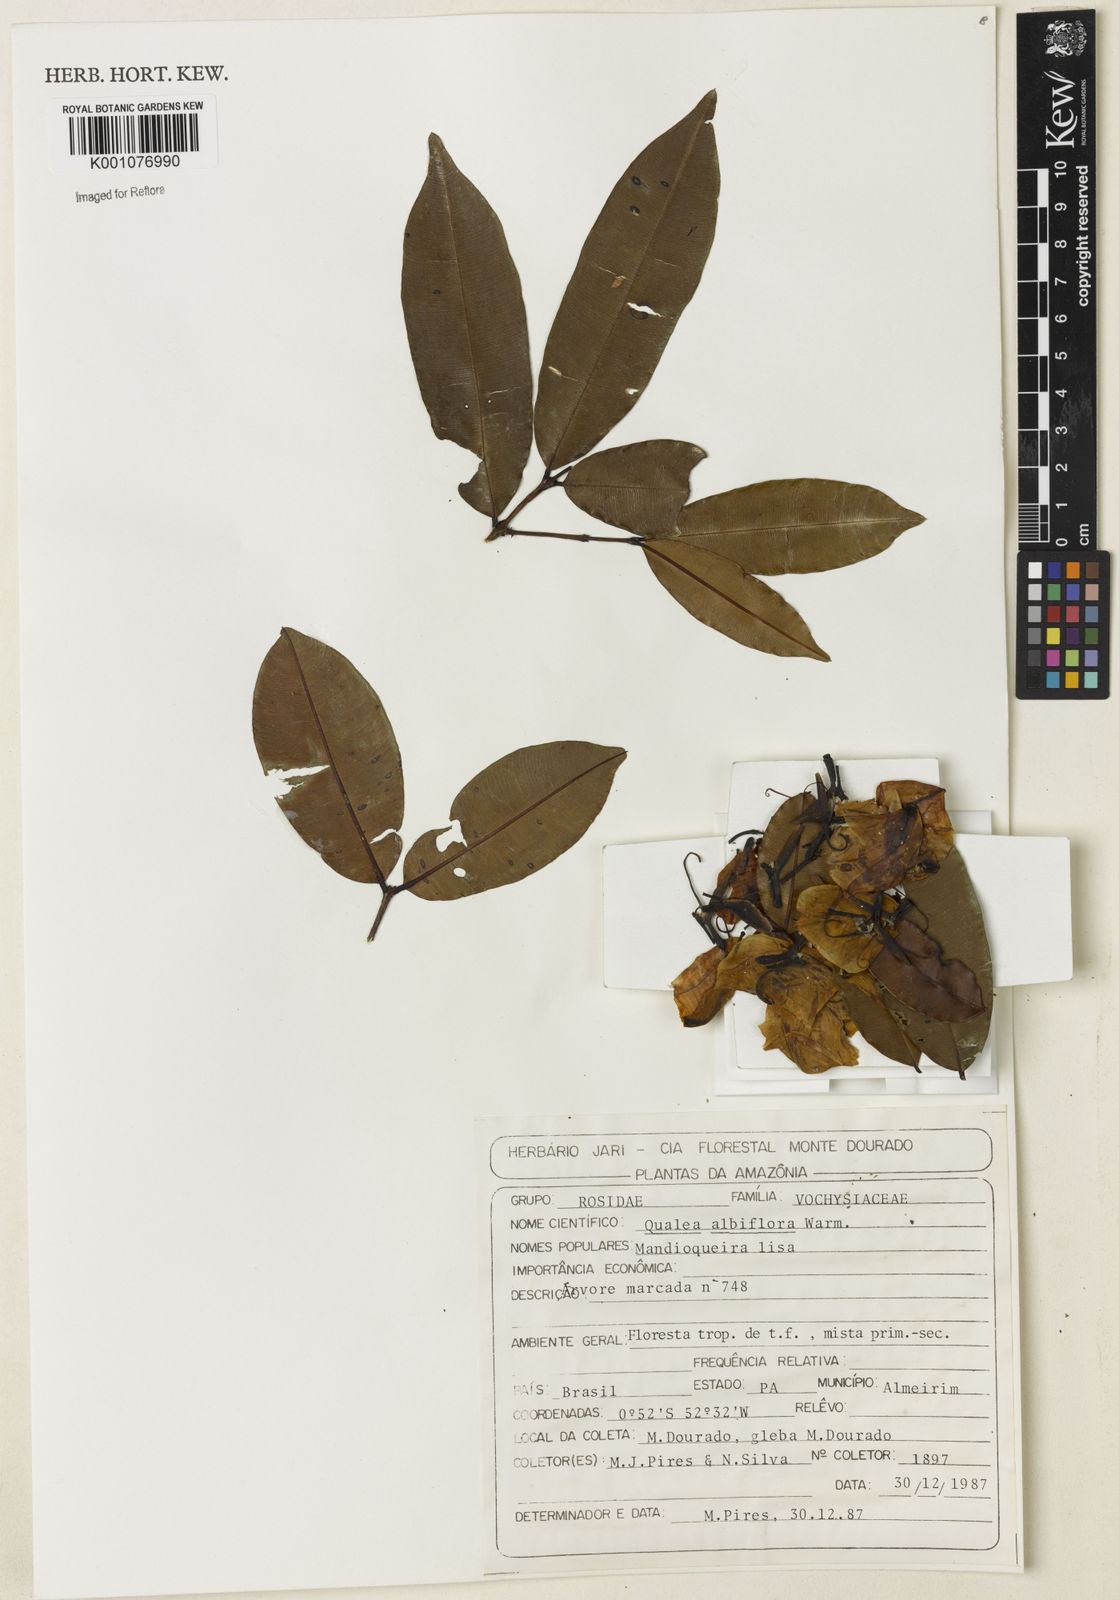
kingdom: Plantae
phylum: Tracheophyta
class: Magnoliopsida
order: Myrtales
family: Vochysiaceae
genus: Ruizterania
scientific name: Ruizterania albiflora
